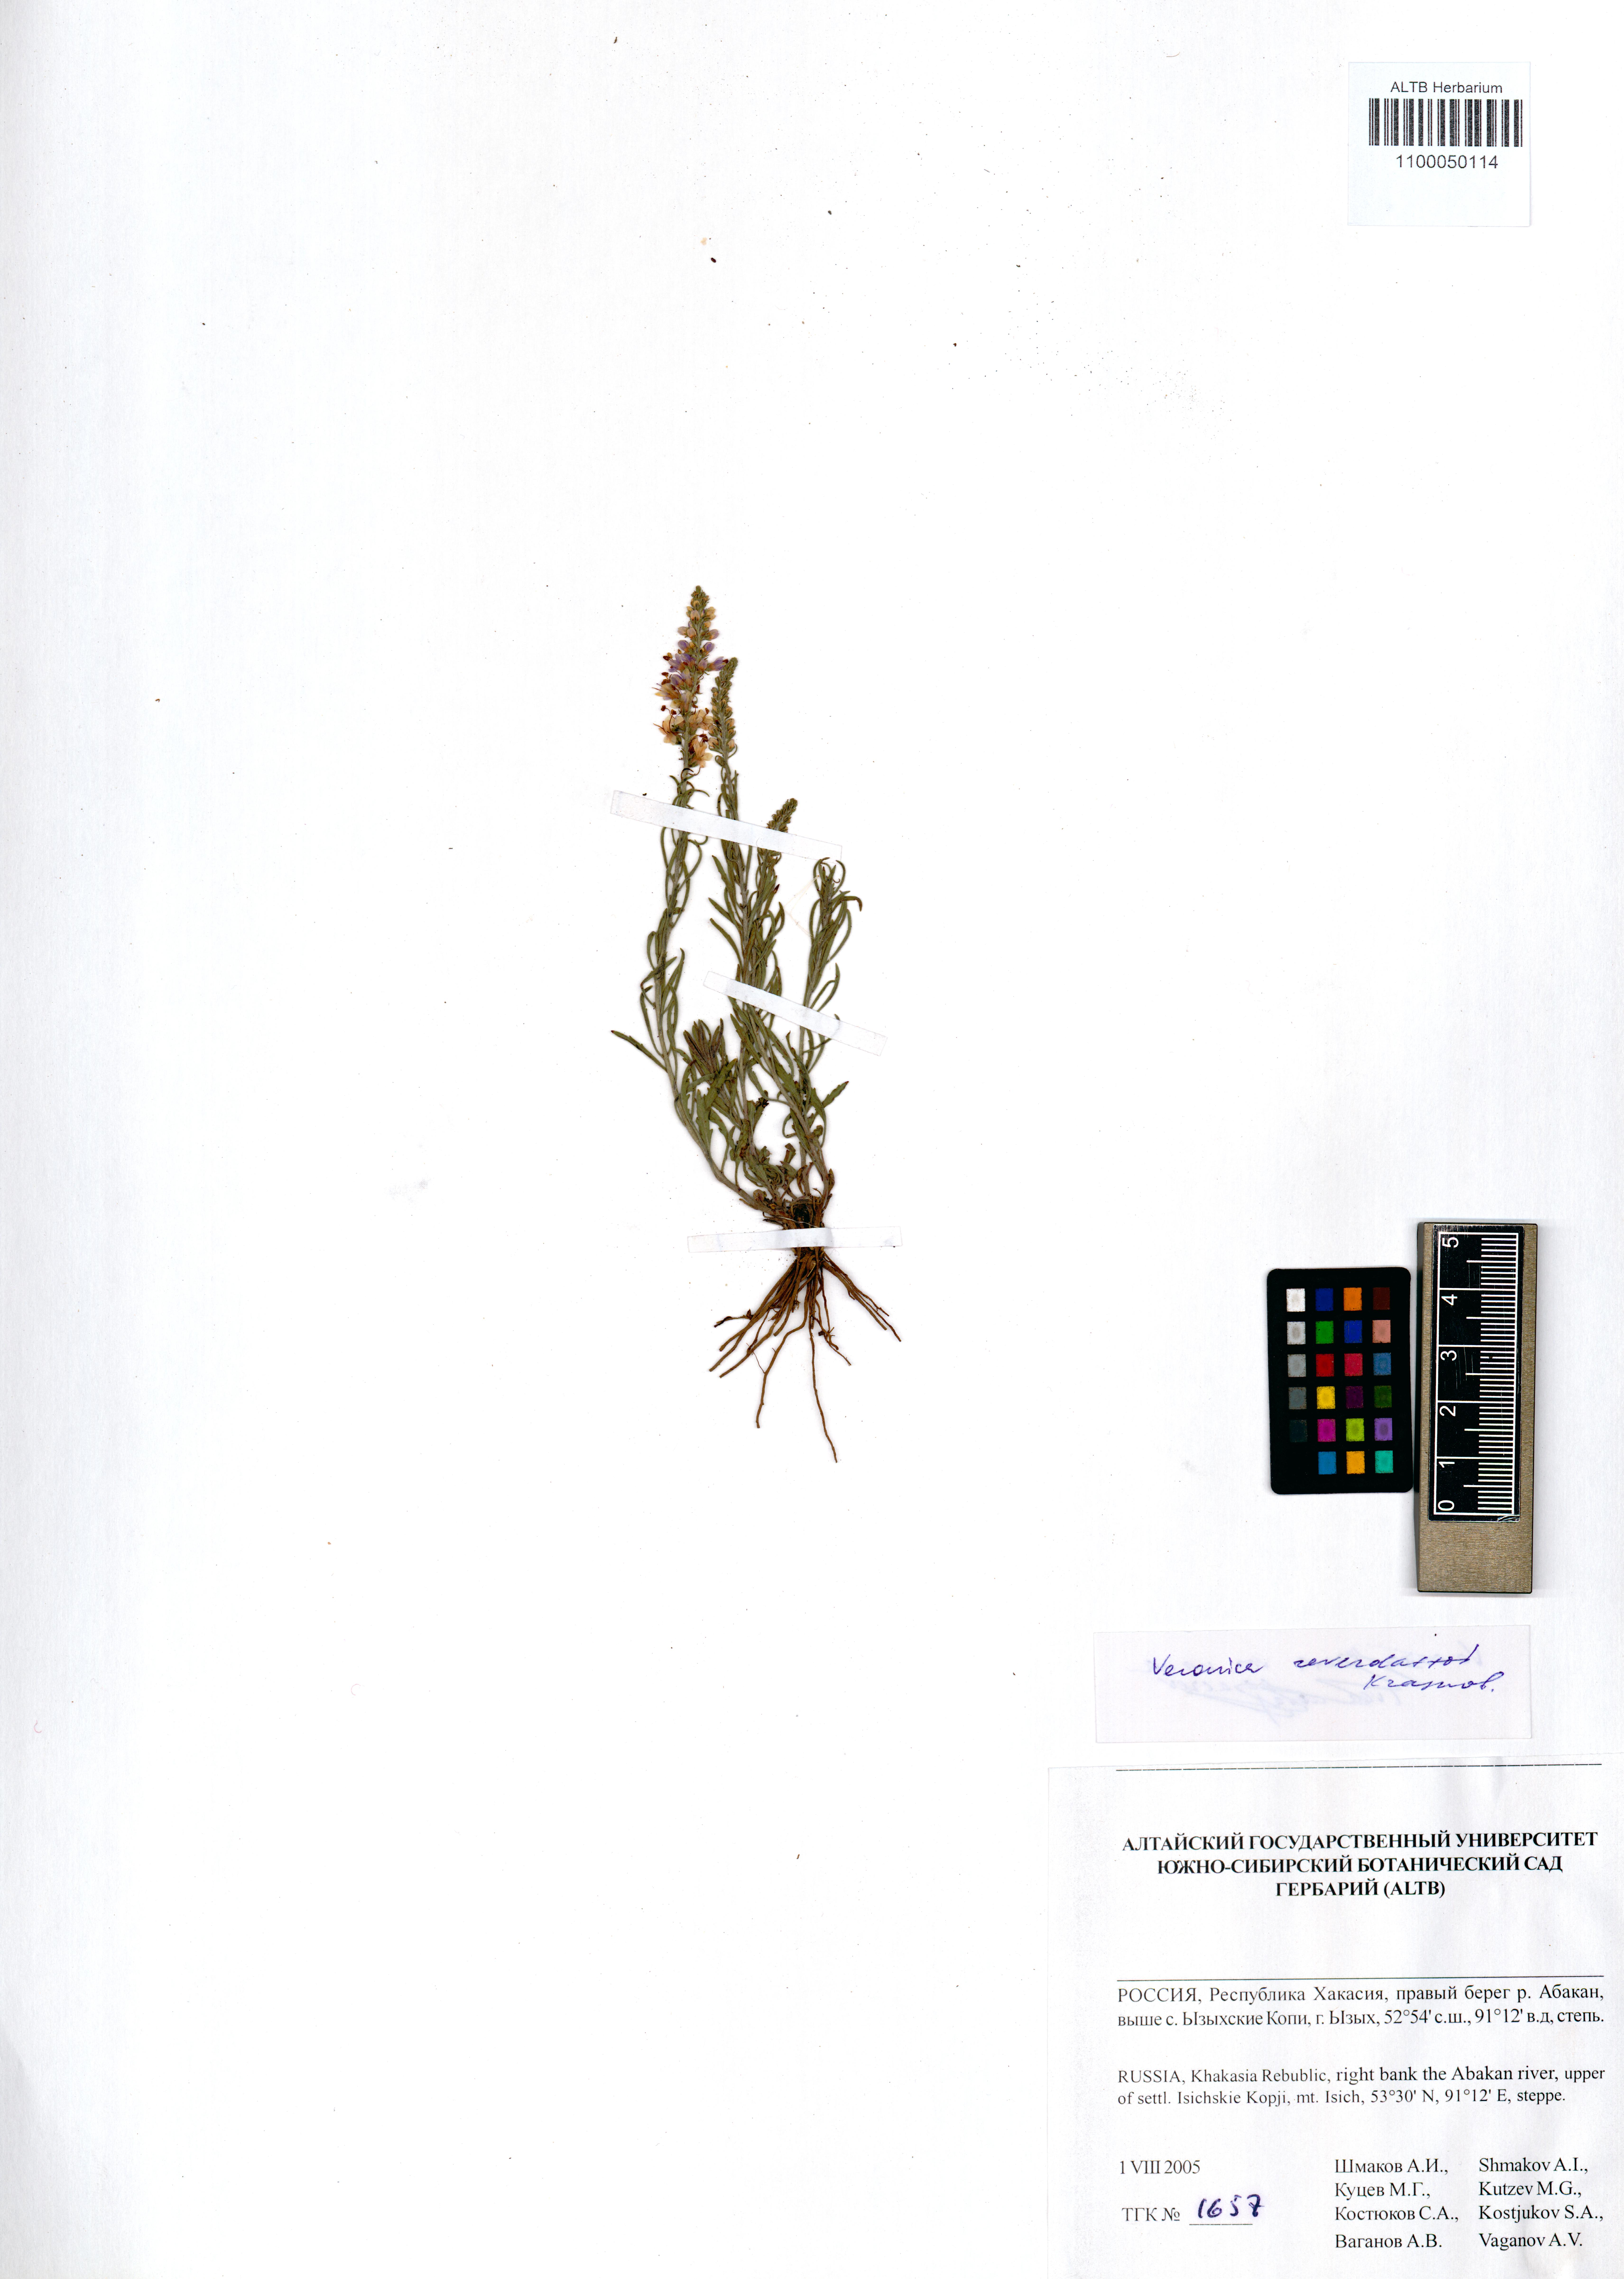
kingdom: Plantae
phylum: Tracheophyta
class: Magnoliopsida
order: Lamiales
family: Plantaginaceae
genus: Veronica
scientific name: Veronica reverdattoi
